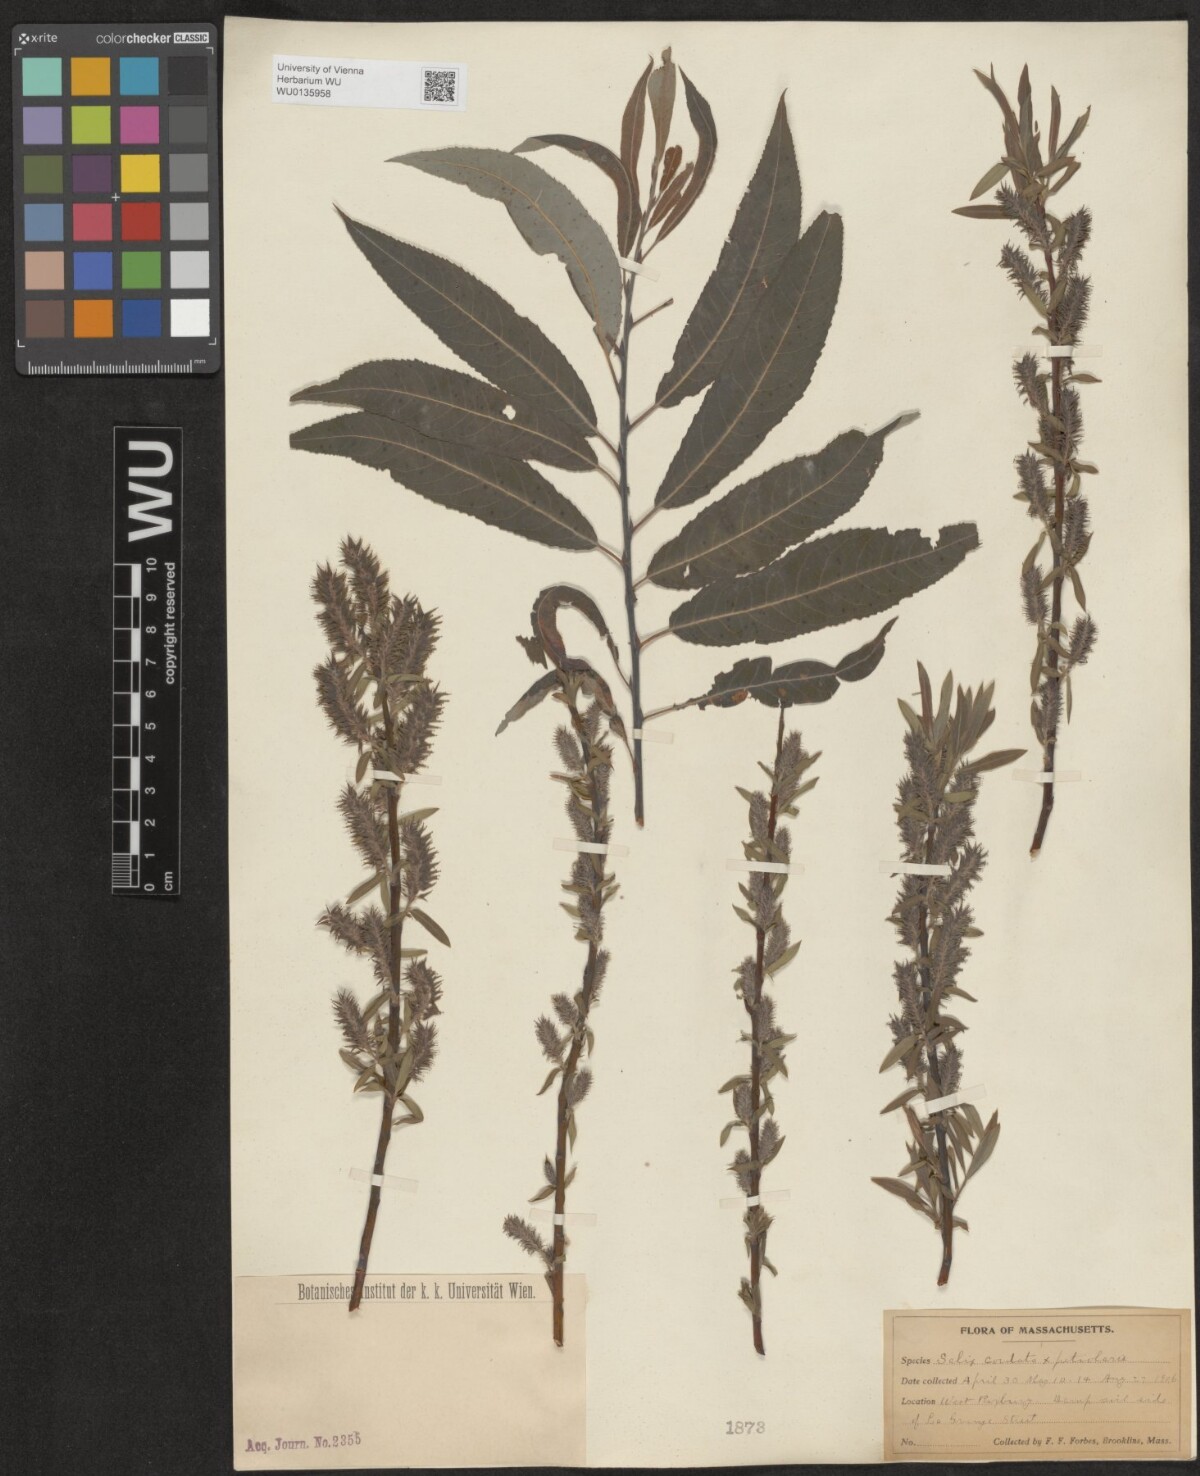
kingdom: Plantae
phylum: Tracheophyta
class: Magnoliopsida
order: Malpighiales
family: Salicaceae
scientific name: Salicaceae
